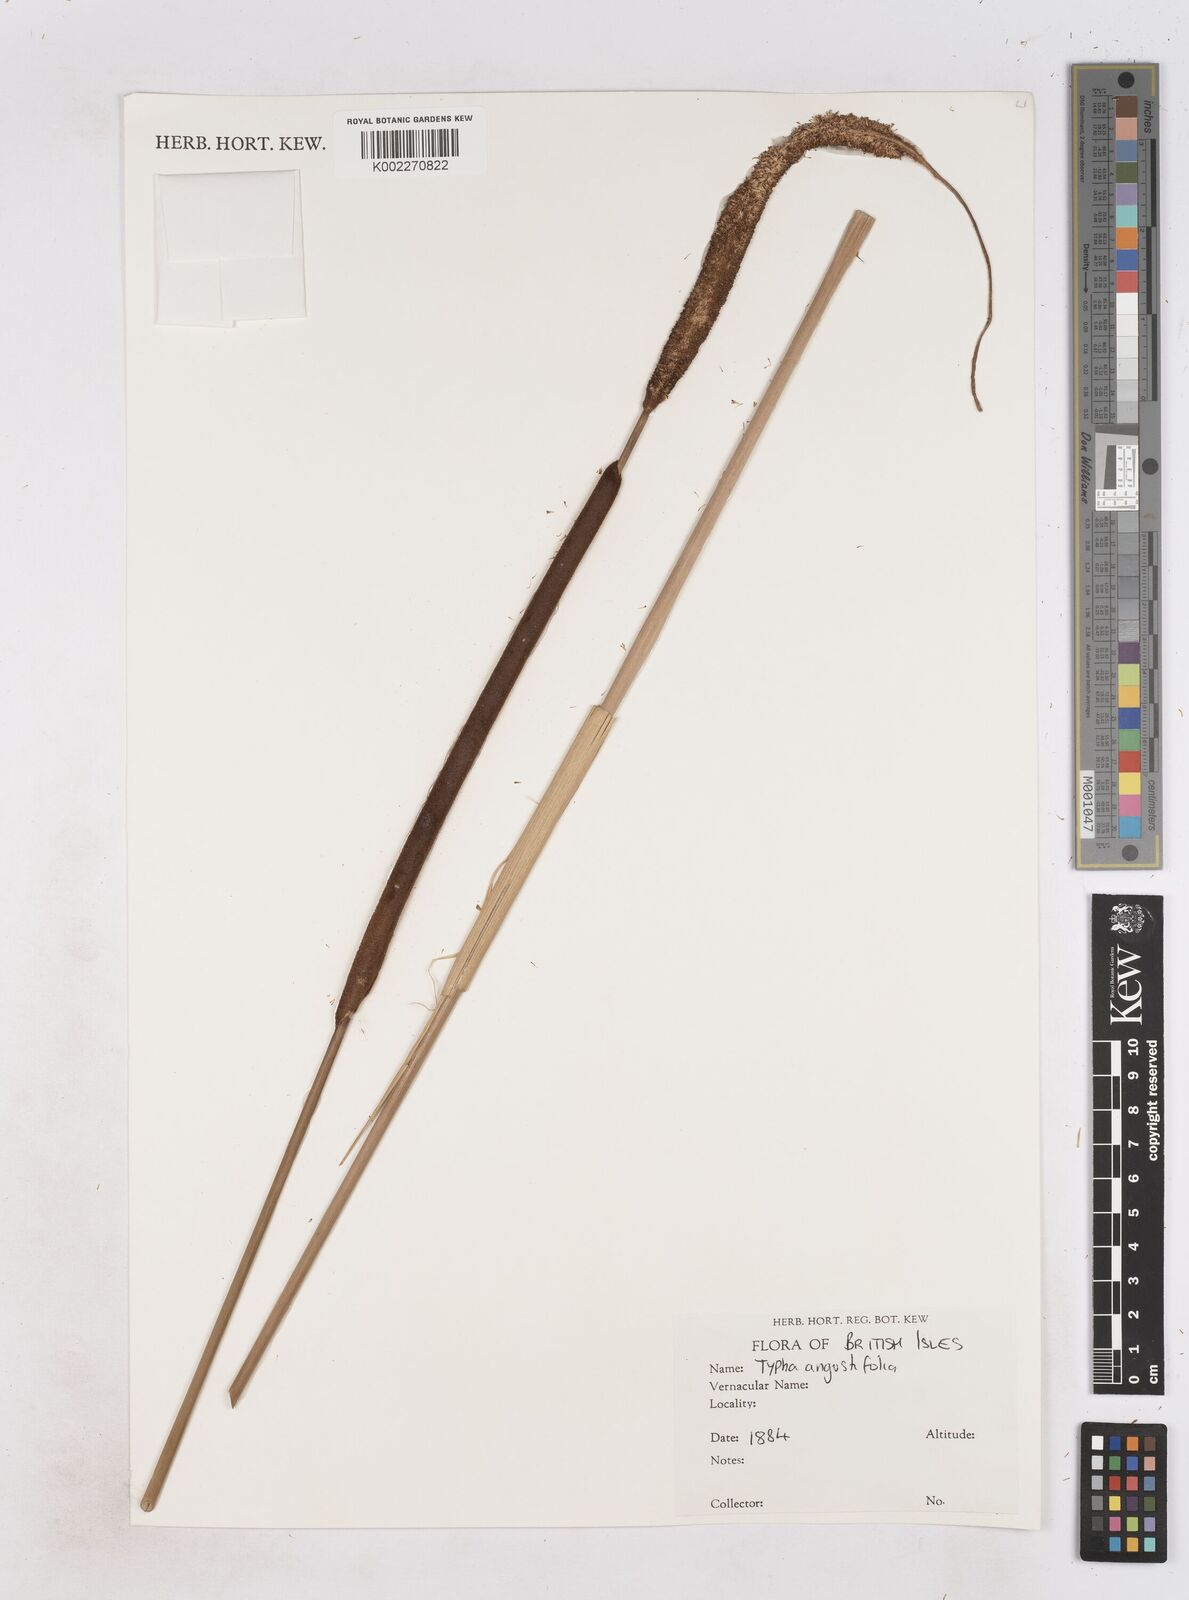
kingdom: Plantae
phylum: Tracheophyta
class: Liliopsida
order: Poales
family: Typhaceae
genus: Typha
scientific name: Typha angustifolia
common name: Lesser bulrush
